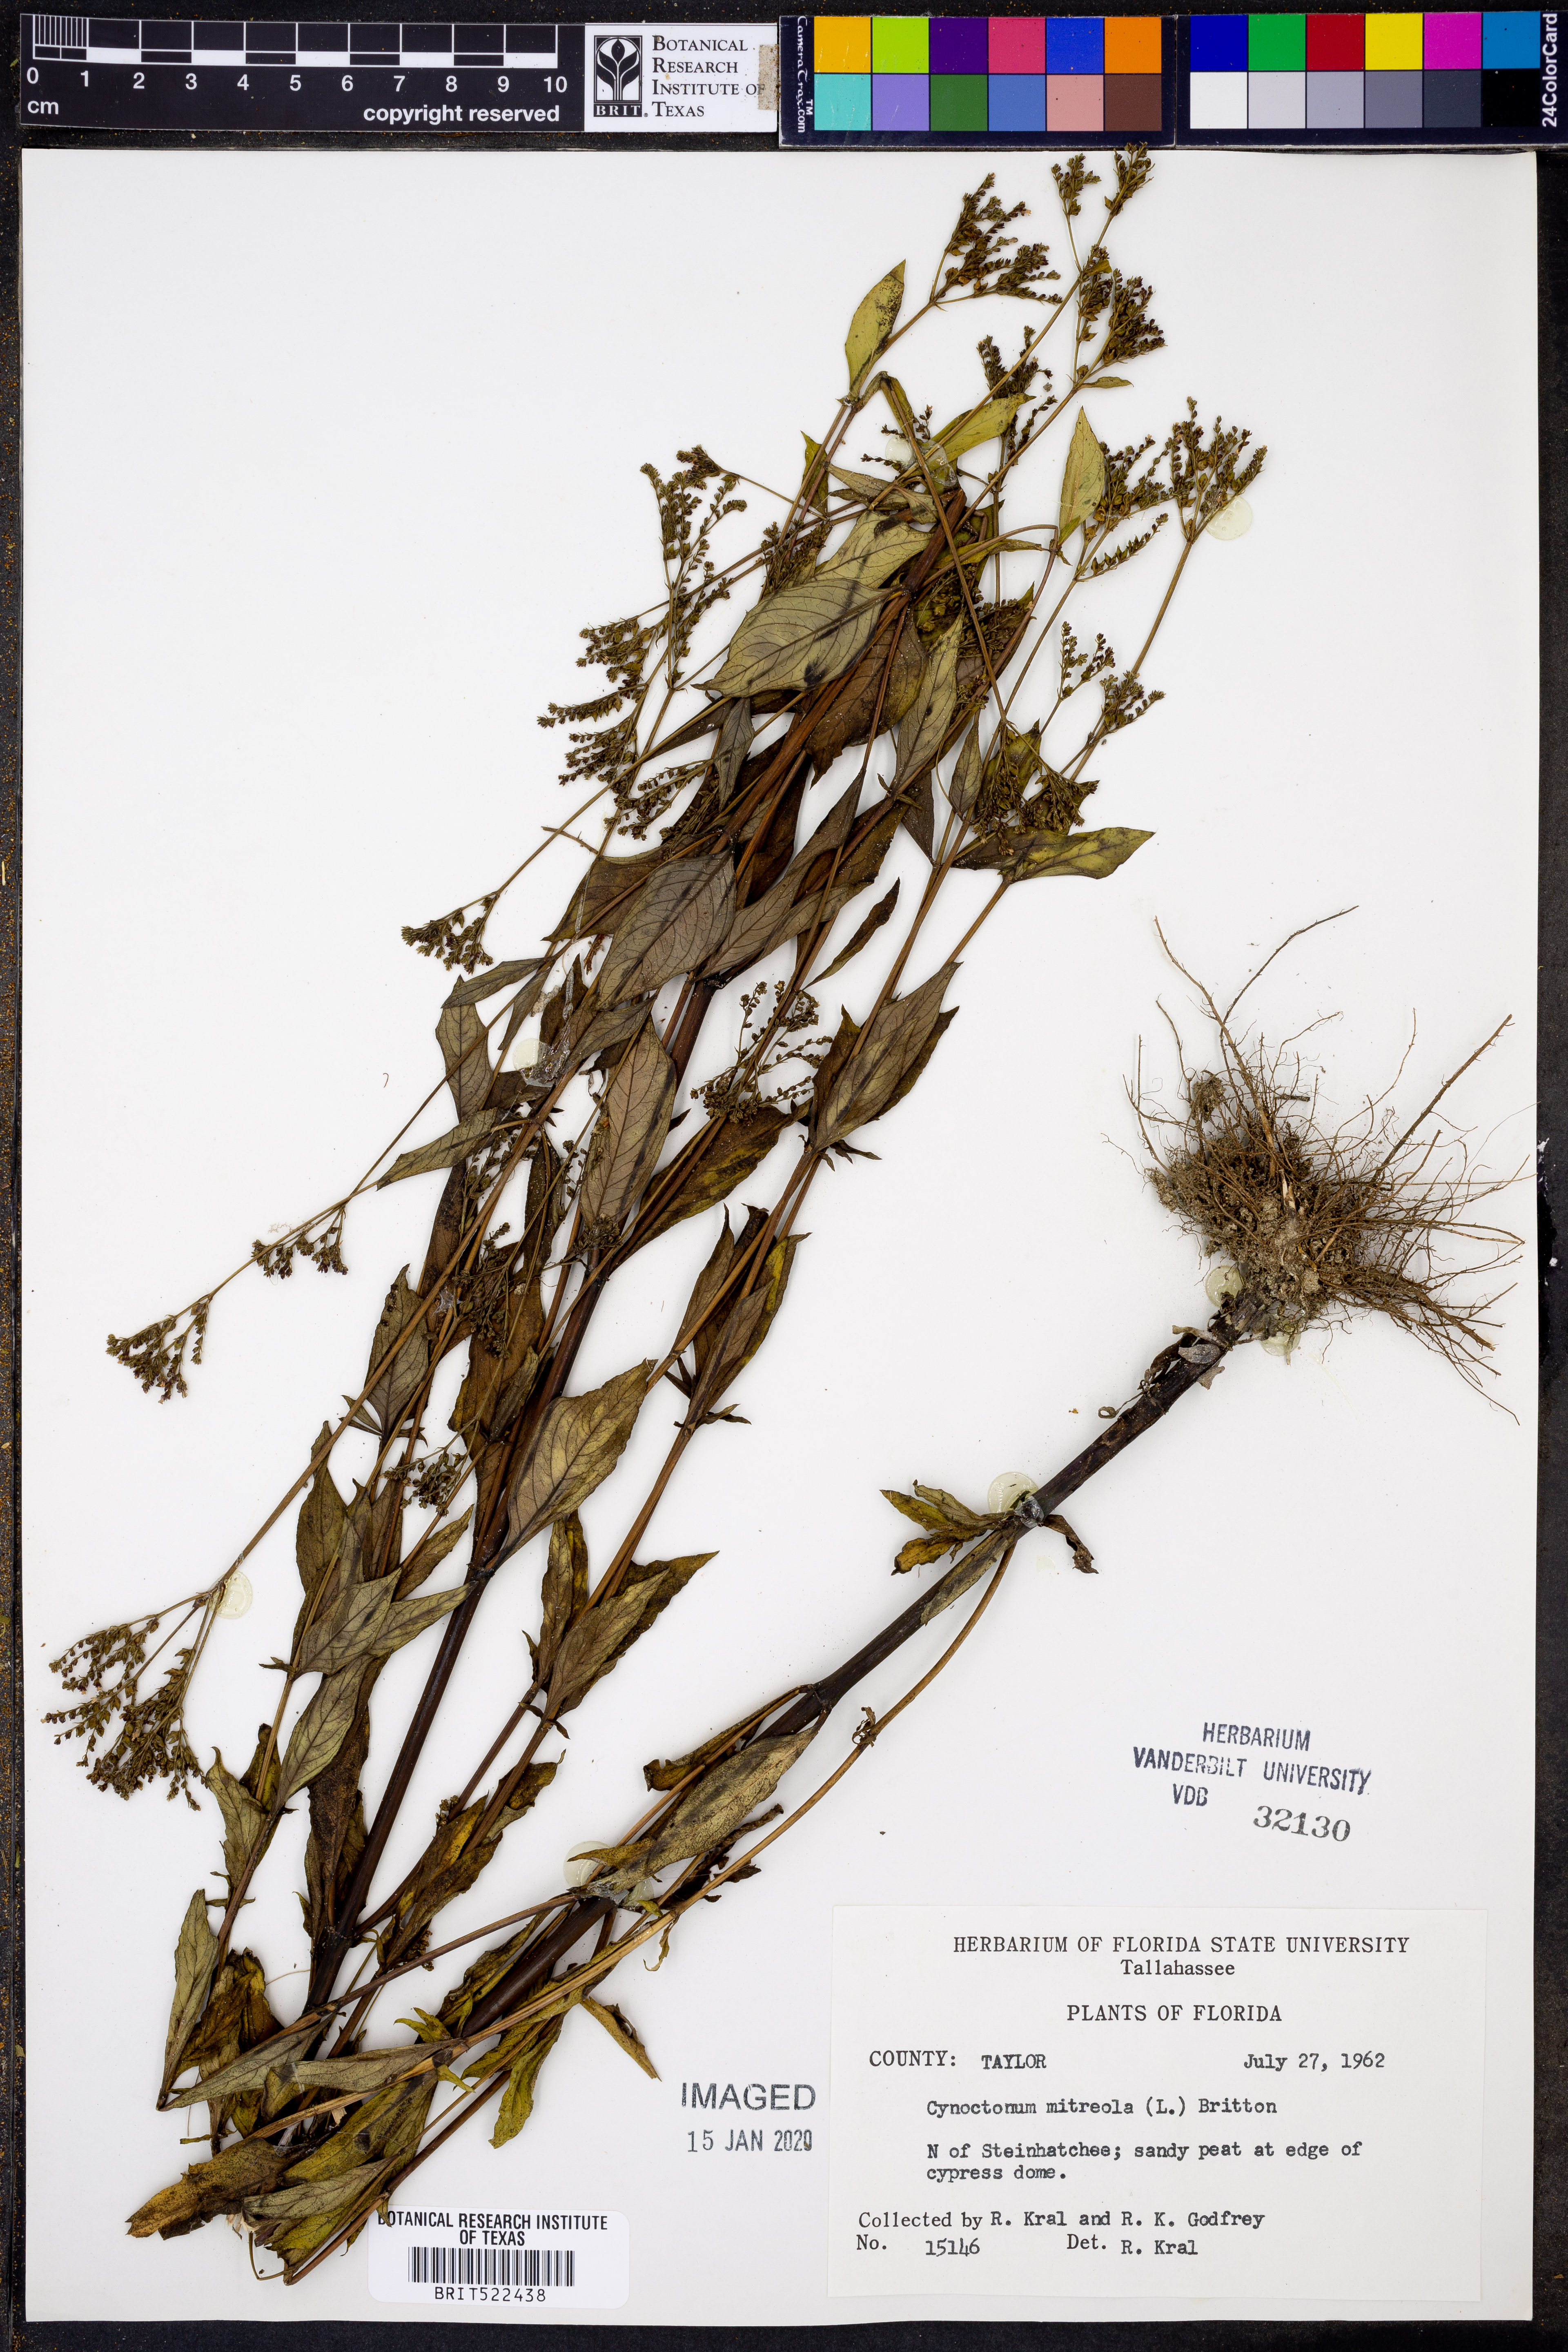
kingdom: Plantae
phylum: Tracheophyta
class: Magnoliopsida
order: Gentianales
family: Loganiaceae
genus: Mitreola
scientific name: Mitreola petiolata
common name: Lax hornpod
